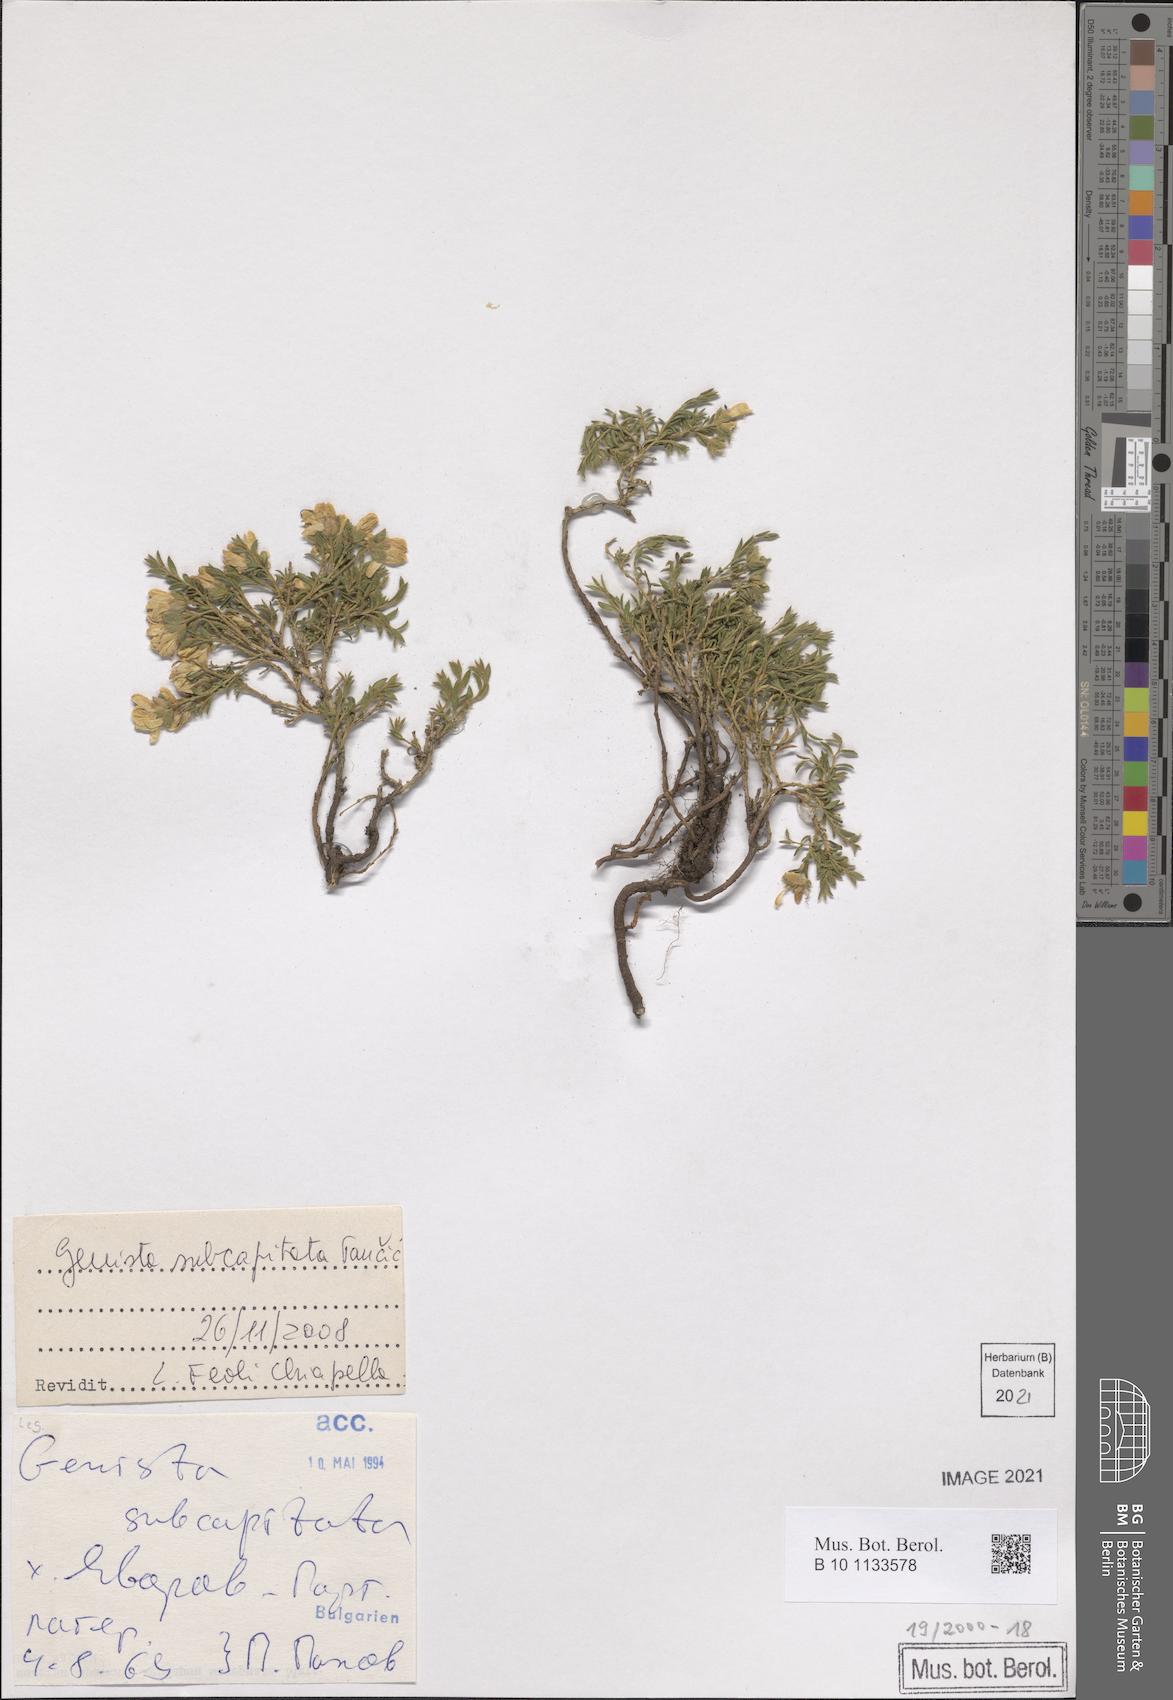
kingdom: Plantae
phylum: Tracheophyta
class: Magnoliopsida
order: Fabales
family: Fabaceae
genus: Genista
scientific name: Genista subcapitata
